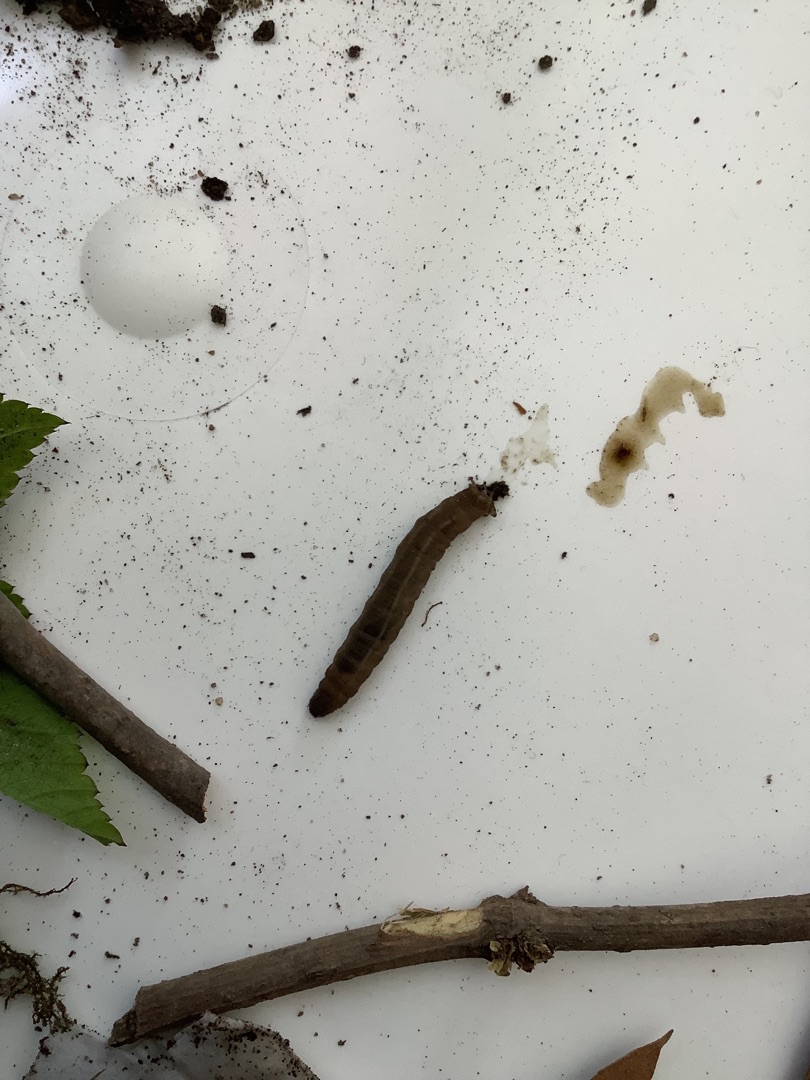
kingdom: Animalia
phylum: Arthropoda
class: Insecta
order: Diptera
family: Tipulidae
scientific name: Tipulidae
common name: Stankelben
